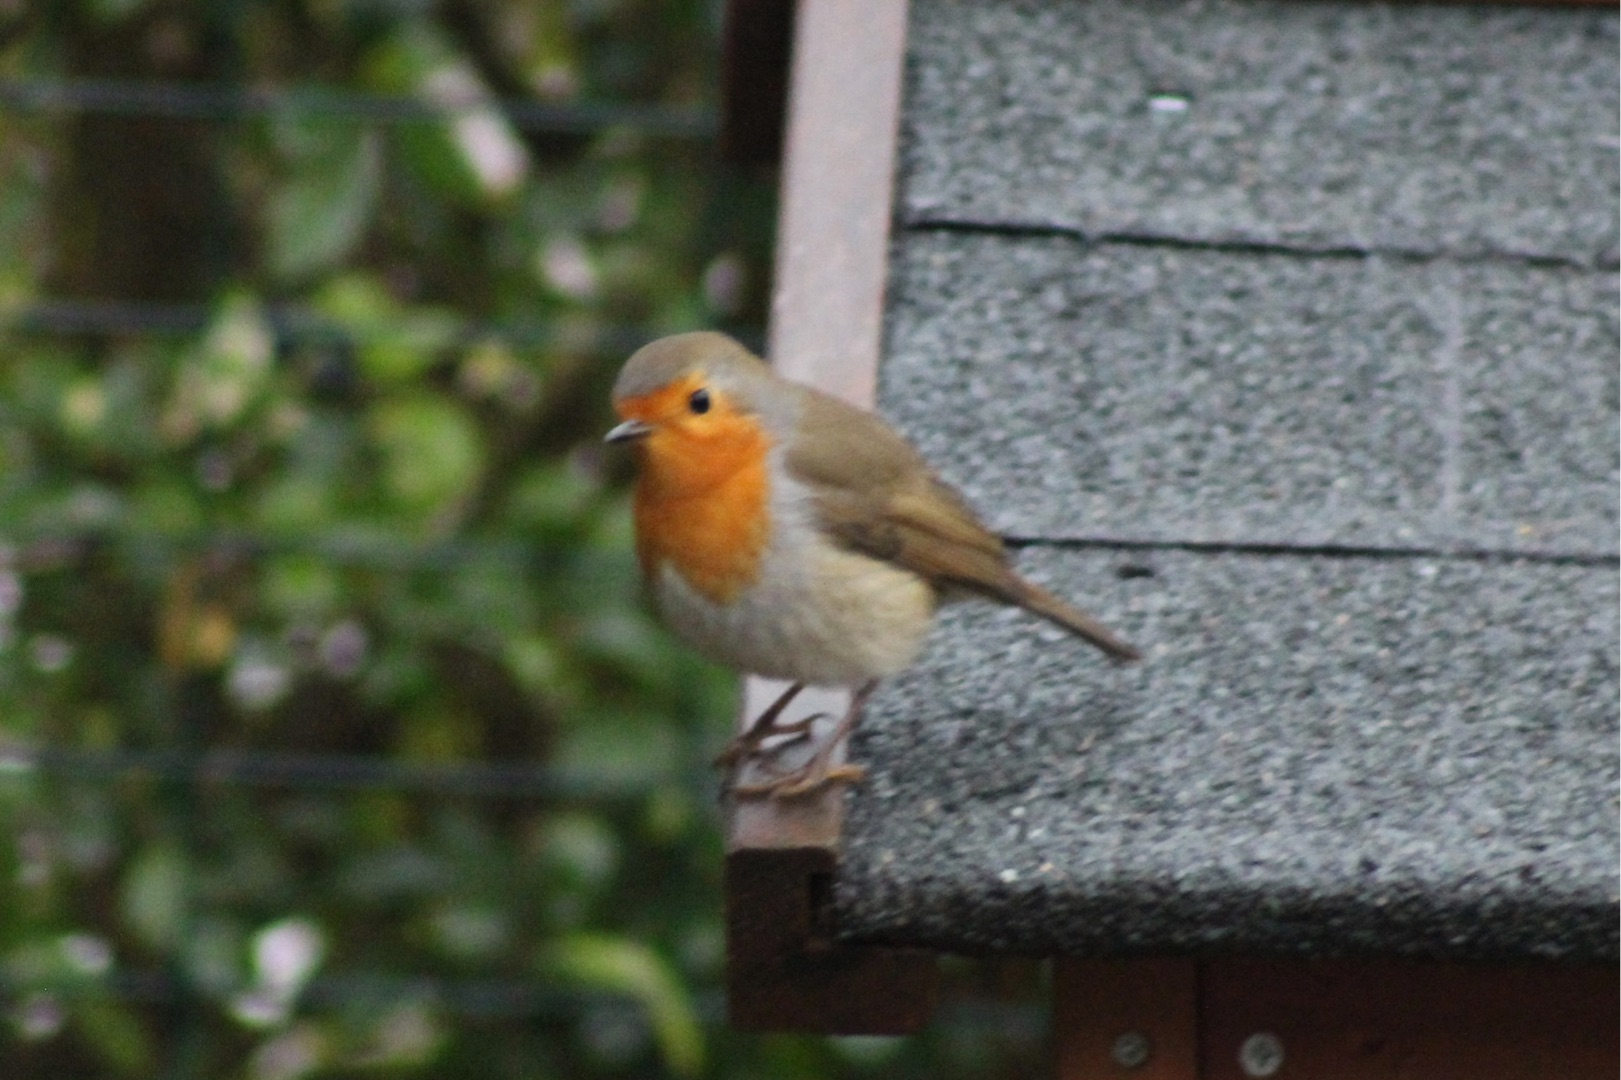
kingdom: Animalia
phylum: Chordata
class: Aves
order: Passeriformes
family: Muscicapidae
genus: Erithacus
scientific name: Erithacus rubecula
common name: Rødhals/rødkælk
